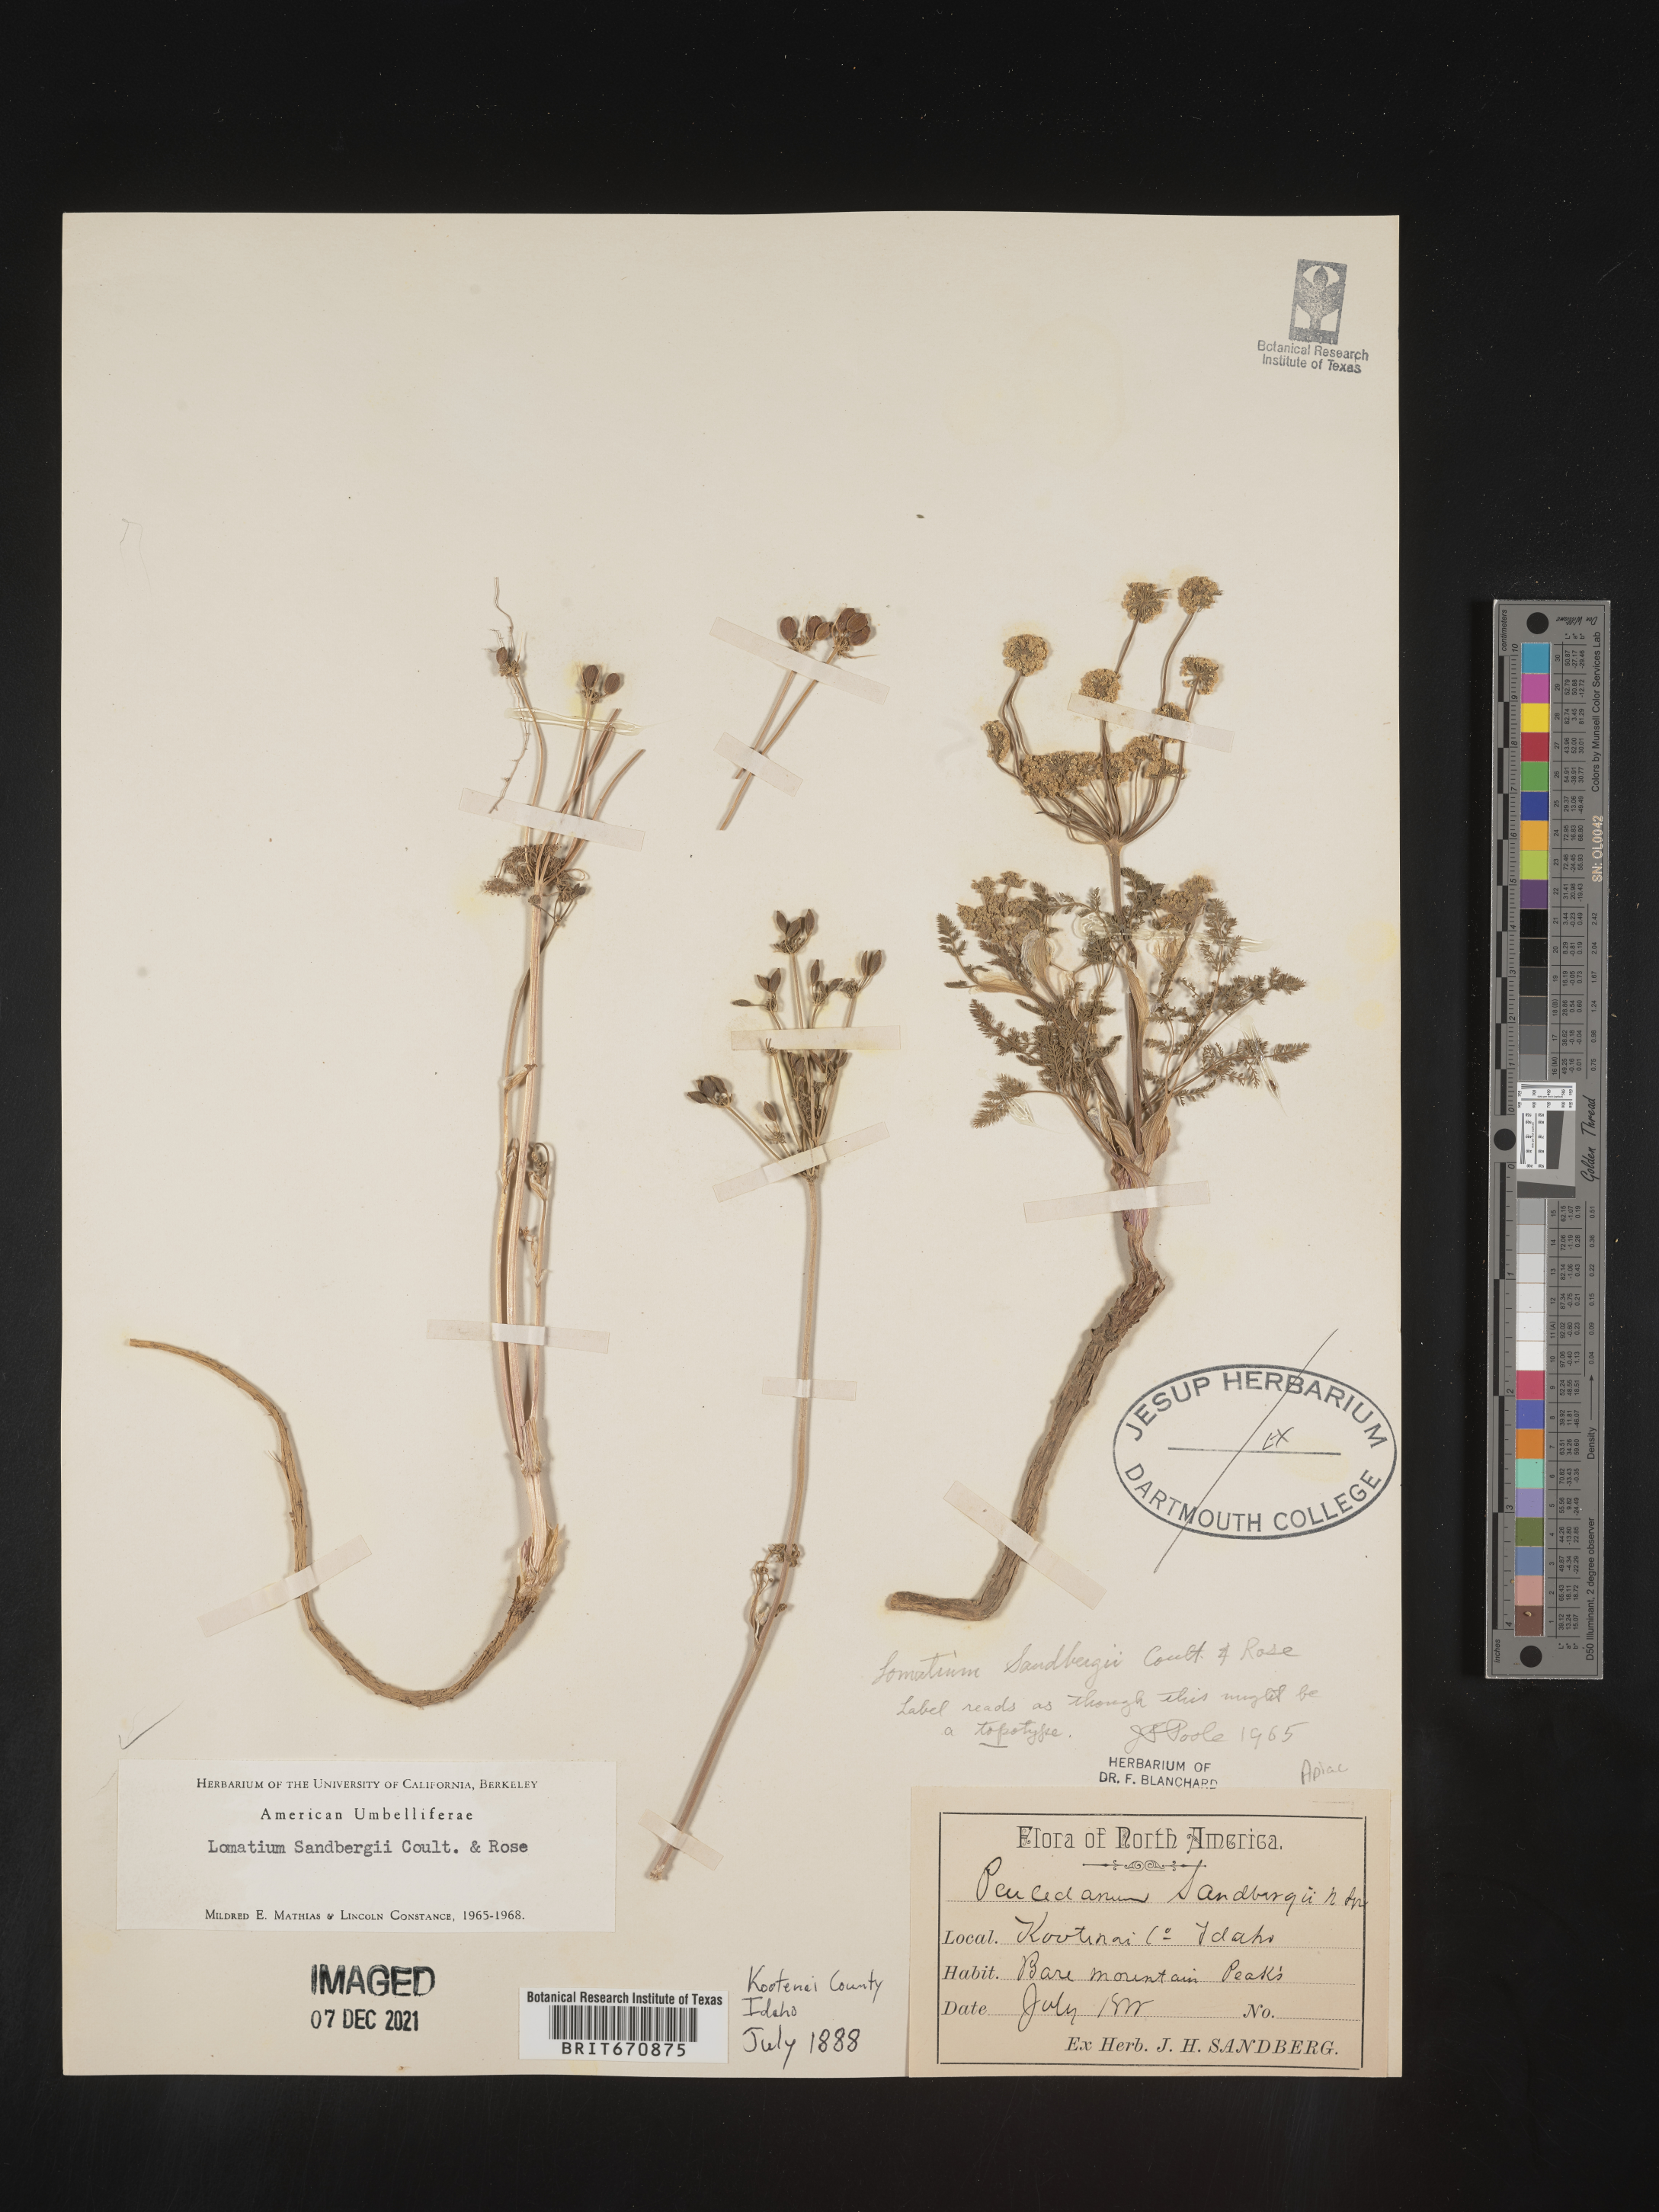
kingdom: Plantae
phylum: Tracheophyta
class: Magnoliopsida
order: Apiales
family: Apiaceae
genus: Lomatium
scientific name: Lomatium
